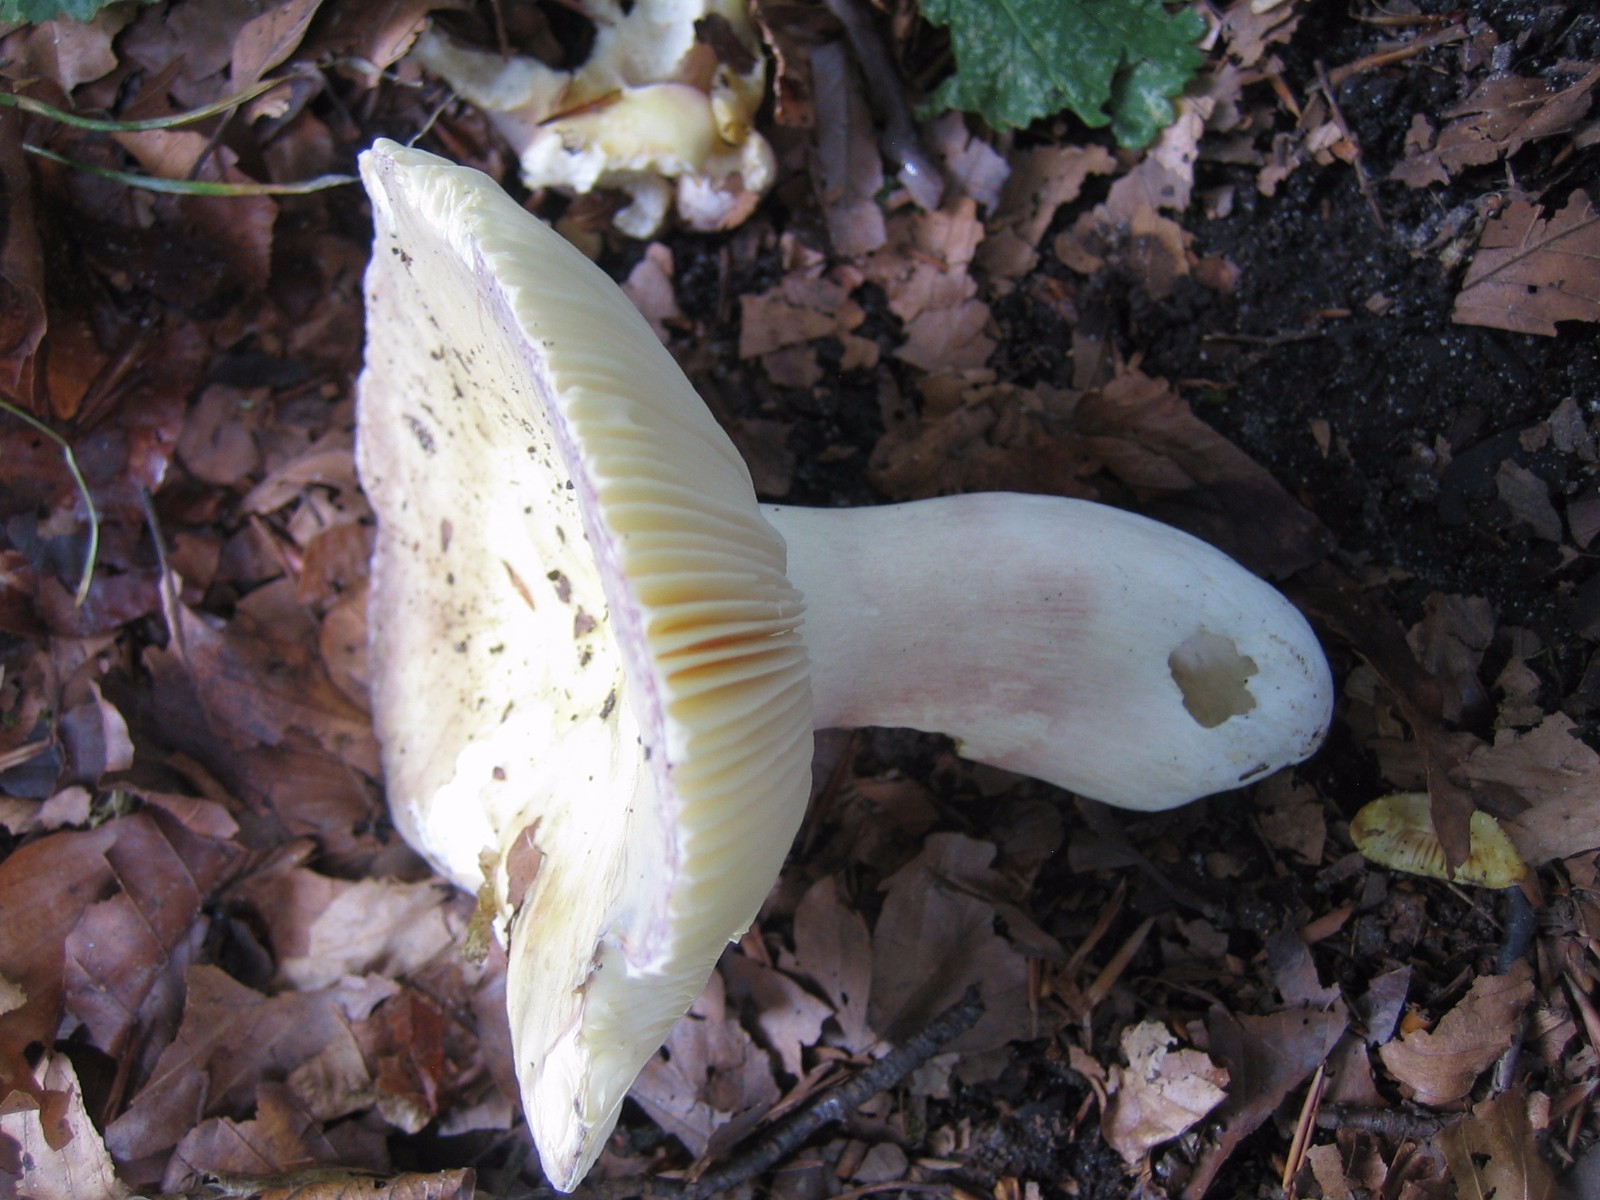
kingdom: Fungi
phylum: Basidiomycota
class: Agaricomycetes
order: Russulales
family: Russulaceae
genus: Russula
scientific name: Russula violeipes
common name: ferskengul skørhat
